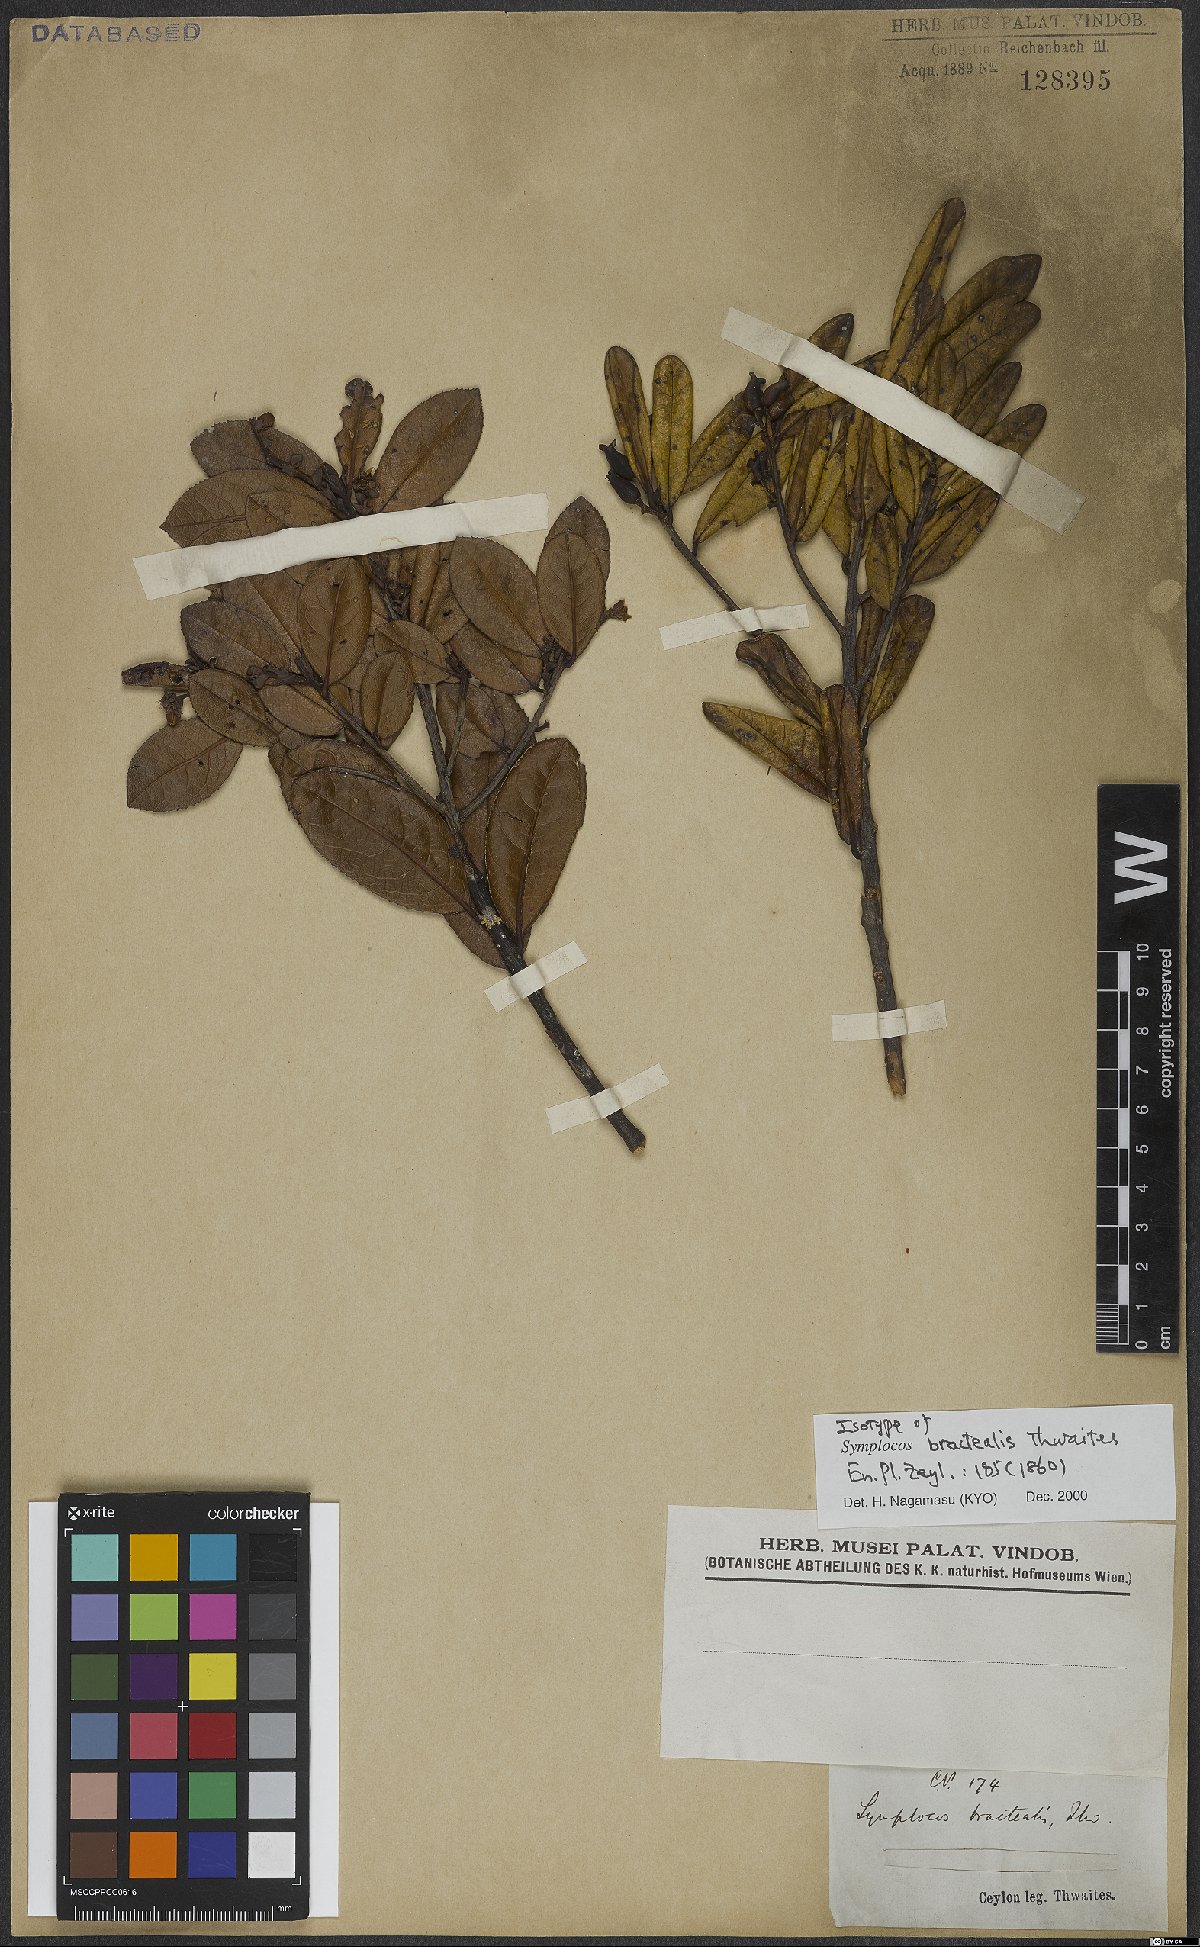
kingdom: Plantae
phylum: Tracheophyta
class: Magnoliopsida
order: Ericales
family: Symplocaceae
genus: Symplocos
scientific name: Symplocos bractealis
